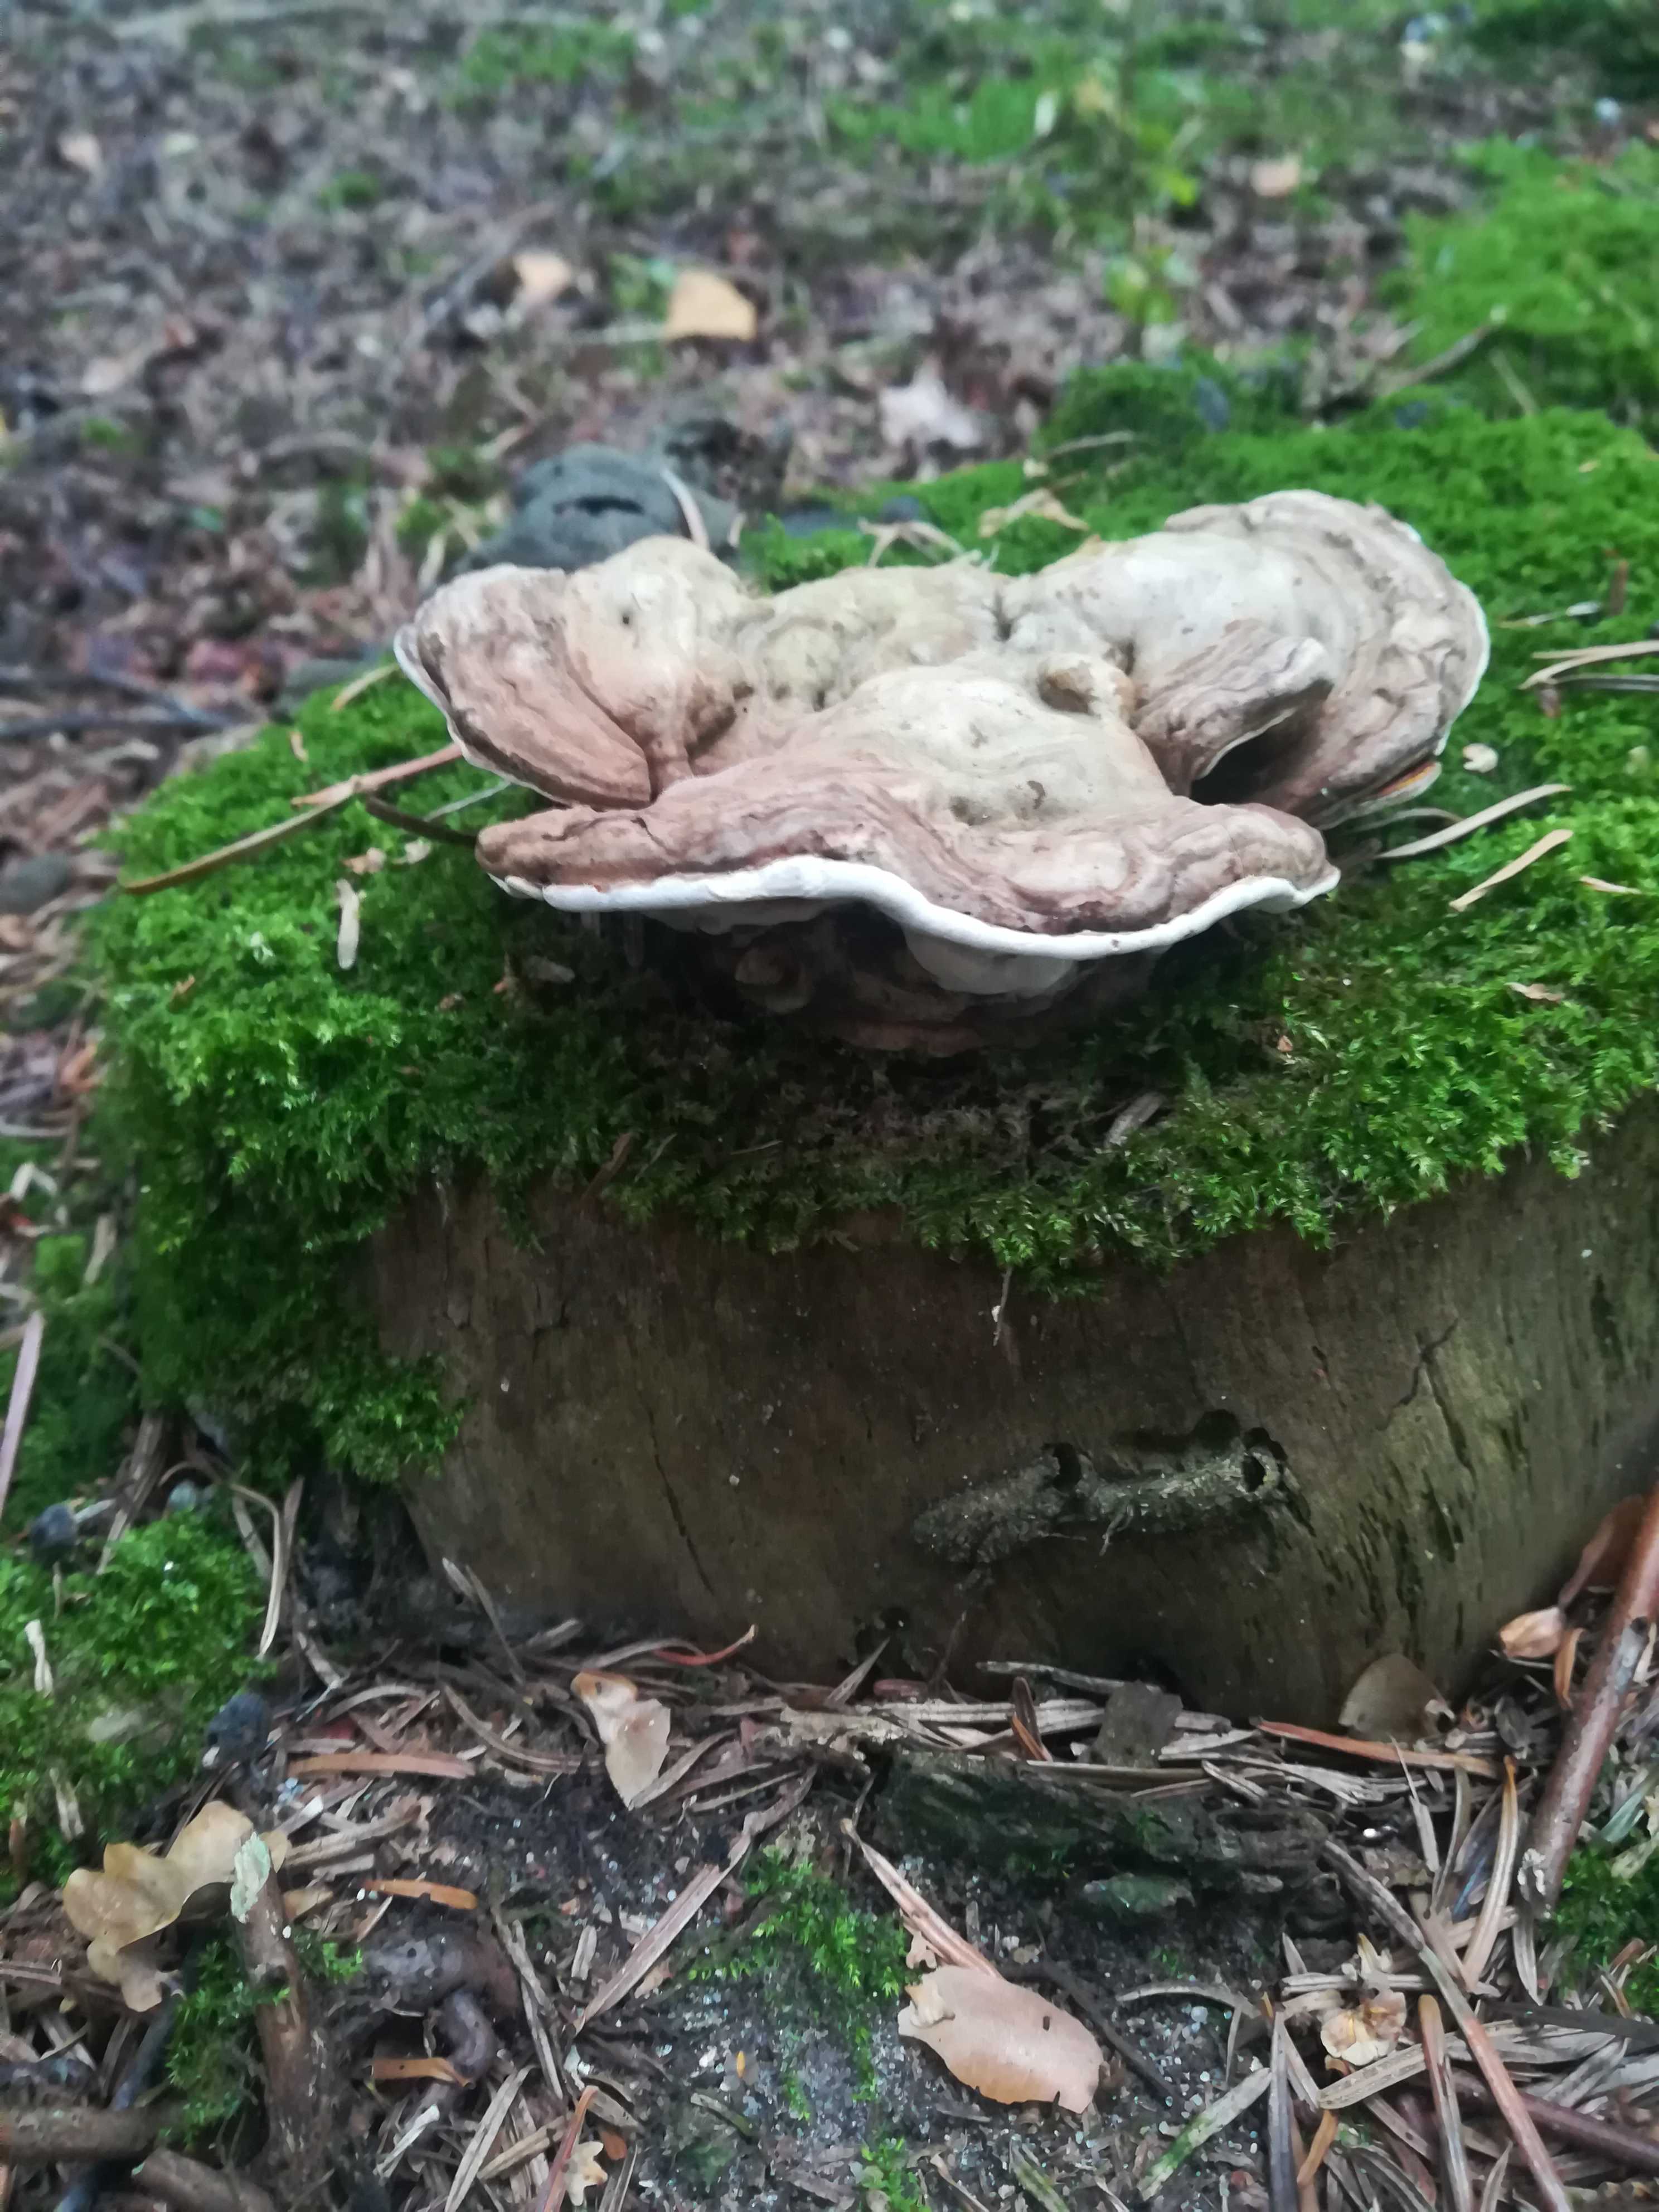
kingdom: Fungi
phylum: Basidiomycota
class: Agaricomycetes
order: Polyporales
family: Polyporaceae
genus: Ganoderma
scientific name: Ganoderma applanatum
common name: flad lakporesvamp
